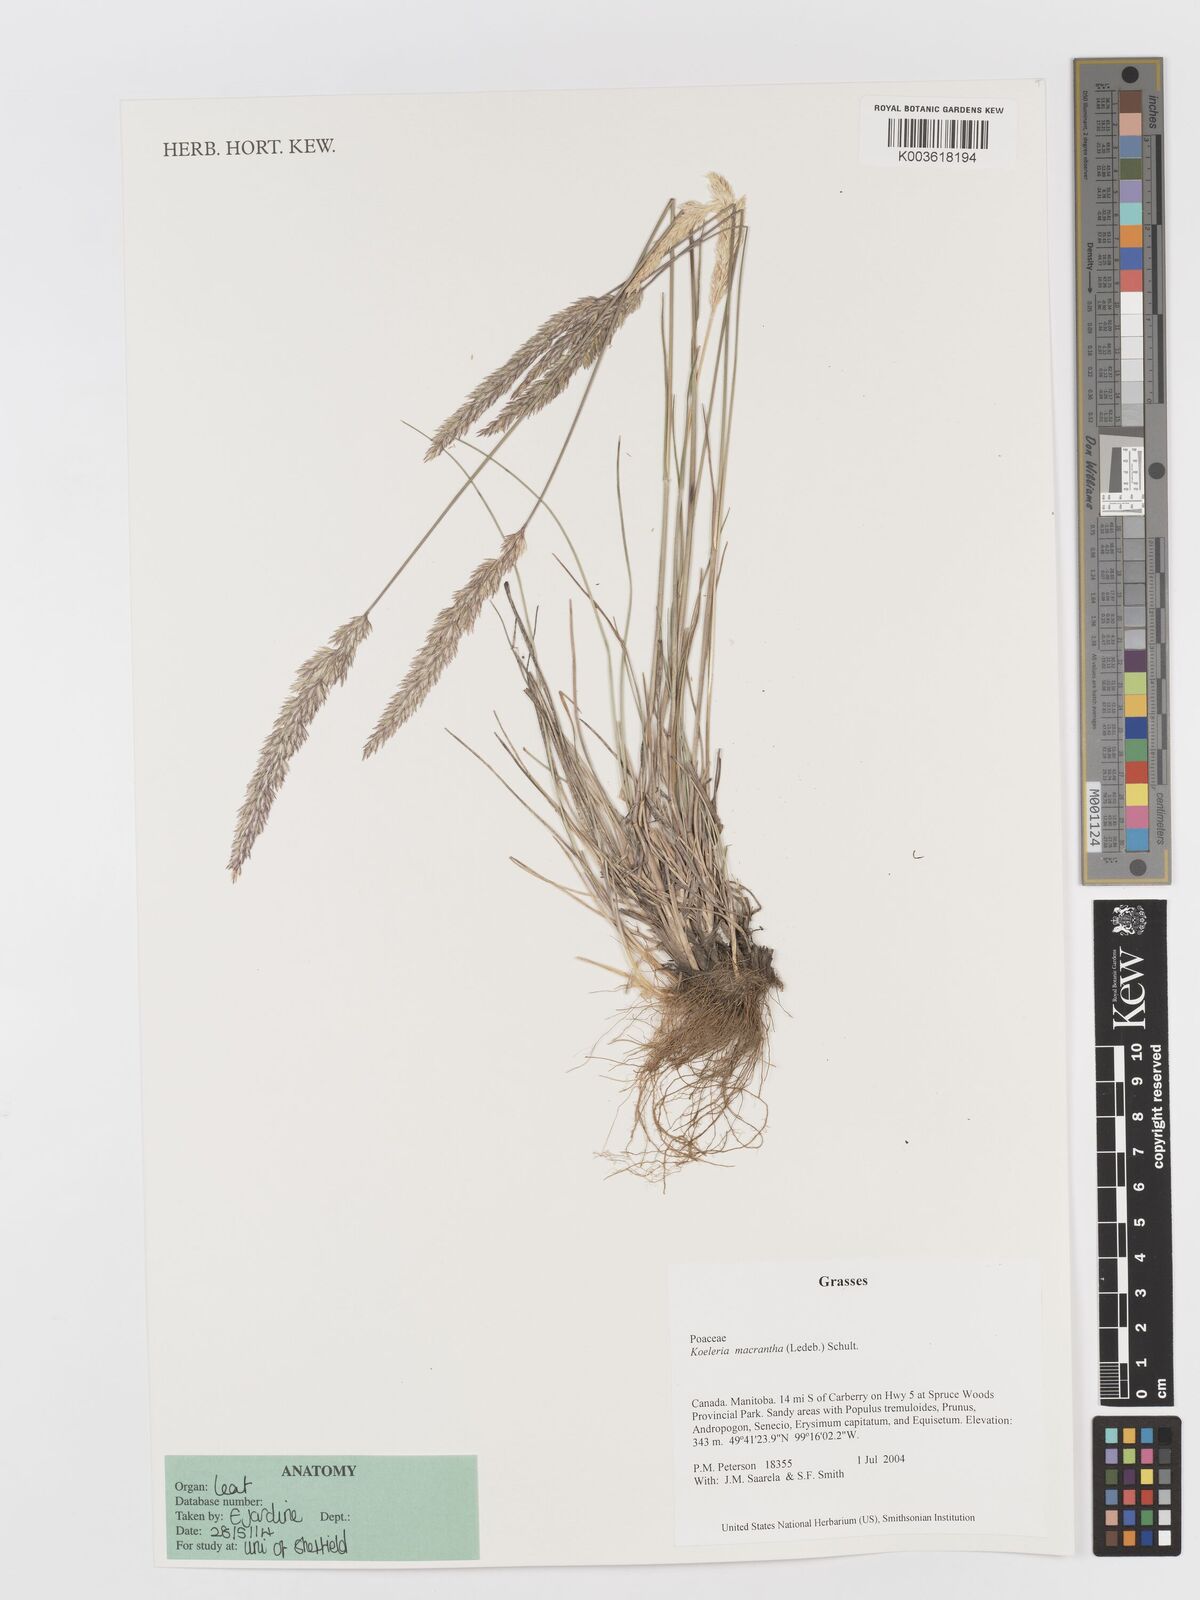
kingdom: Plantae
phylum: Tracheophyta
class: Liliopsida
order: Poales
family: Poaceae
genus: Koeleria
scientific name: Koeleria
